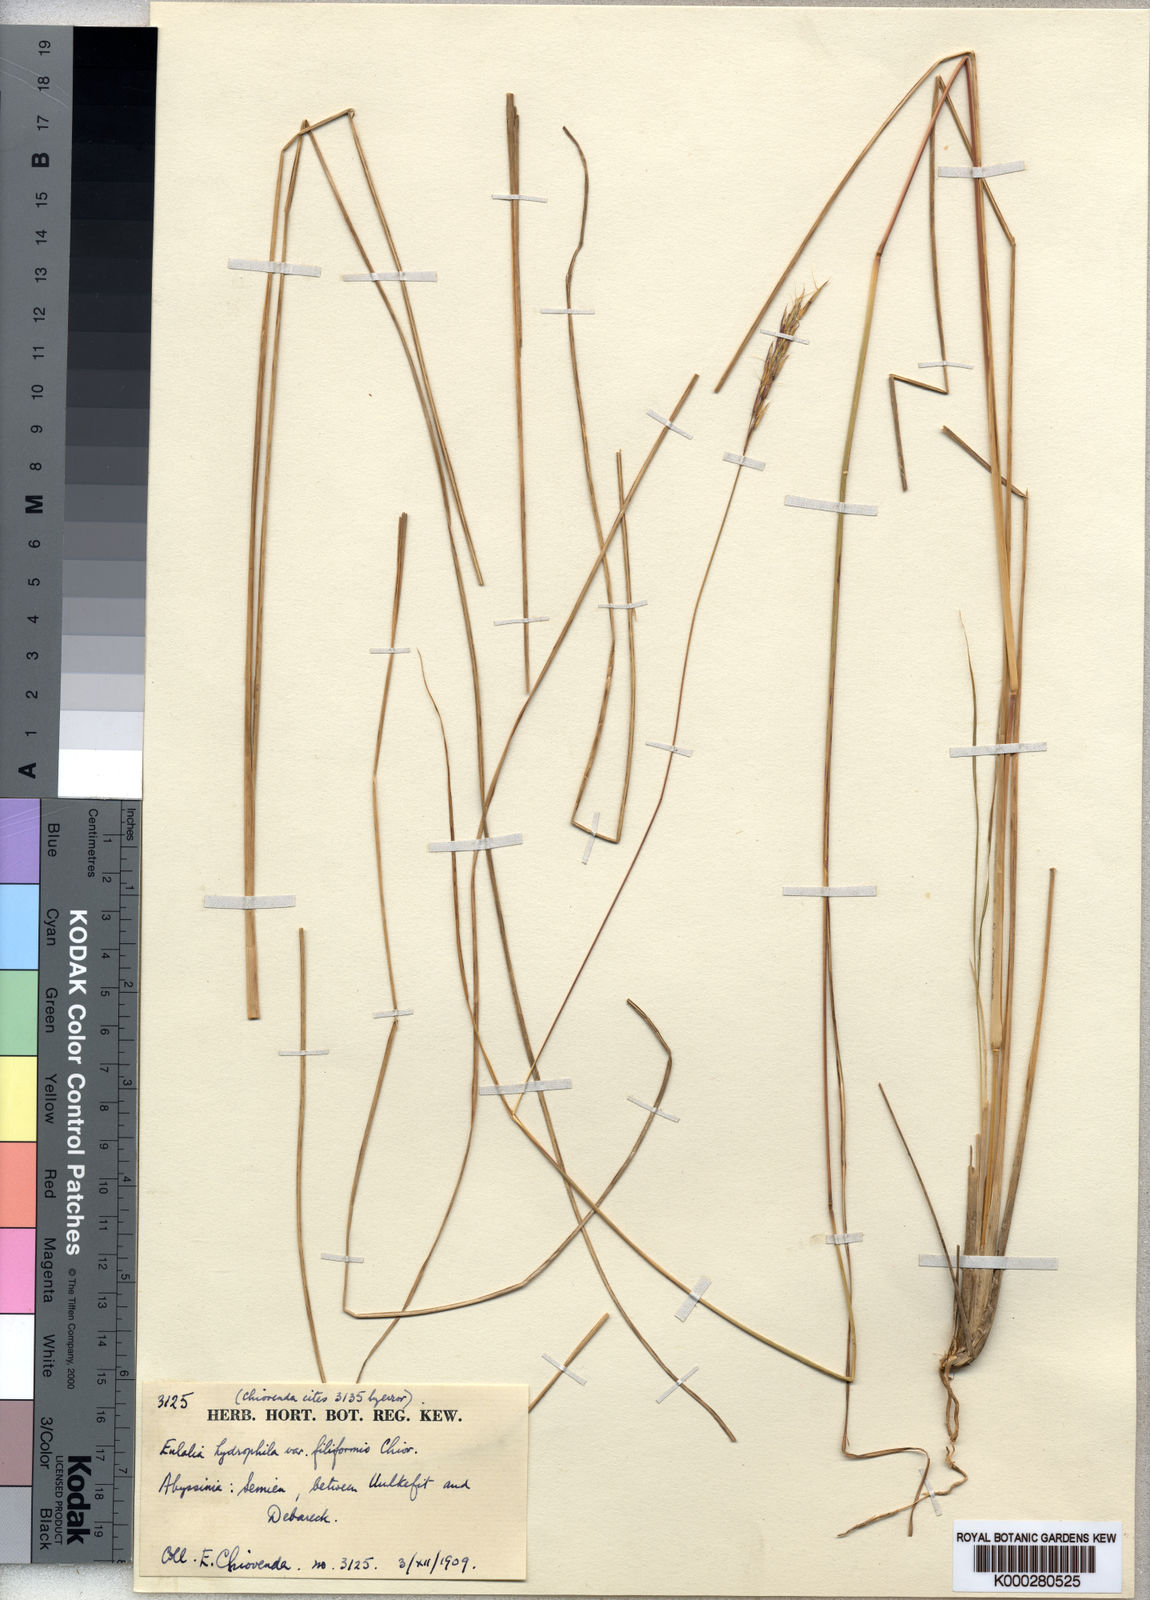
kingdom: Plantae
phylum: Tracheophyta
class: Liliopsida
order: Poales
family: Poaceae
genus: Andropogon
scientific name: Andropogon lima
